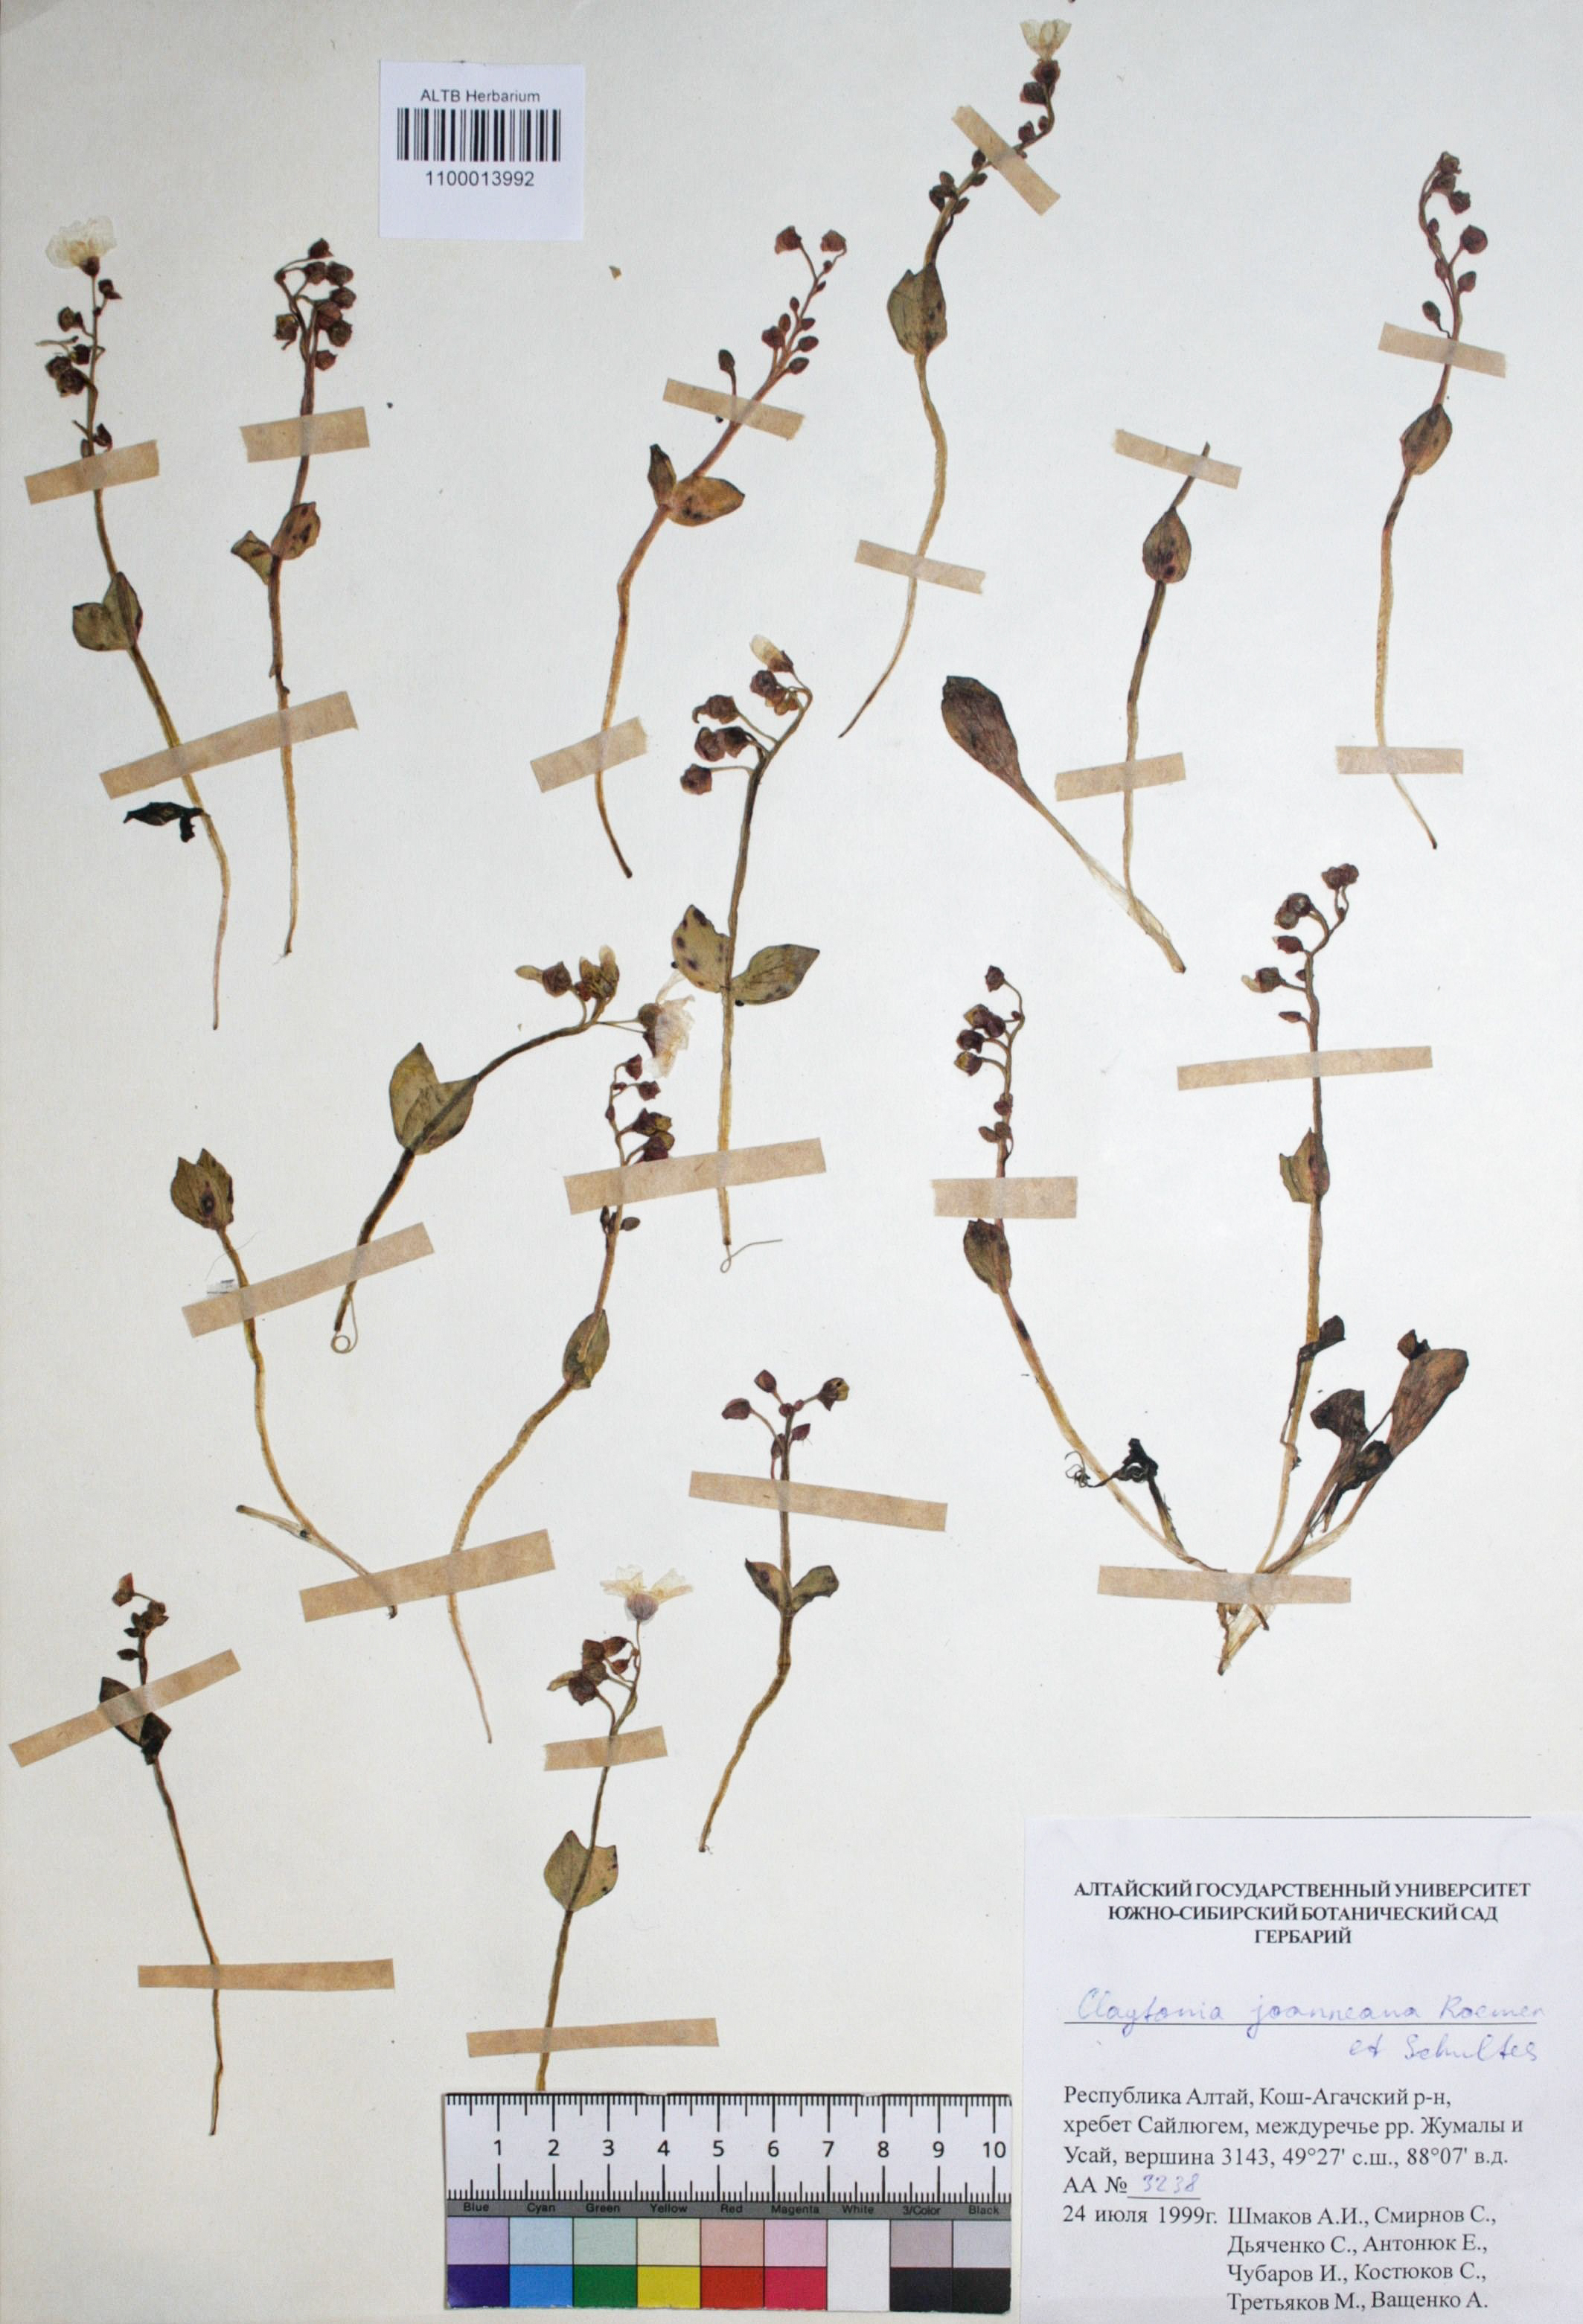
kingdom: Plantae
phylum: Tracheophyta
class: Magnoliopsida
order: Caryophyllales
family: Montiaceae
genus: Claytonia
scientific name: Claytonia joanneana
